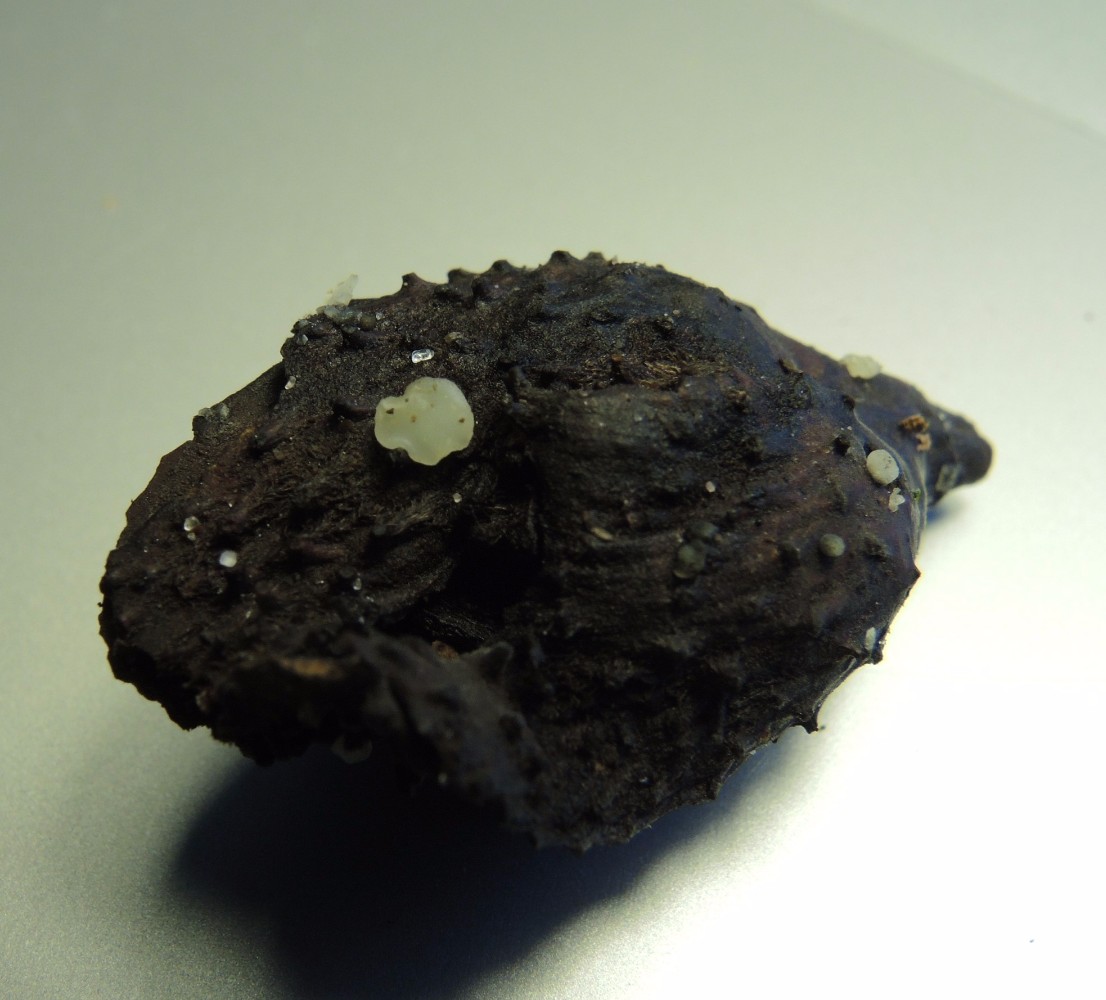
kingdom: Fungi
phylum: Ascomycota
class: Leotiomycetes
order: Helotiales
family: Helotiaceae
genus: Hymenoscyphus
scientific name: Hymenoscyphus fagineus
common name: vellugtende stilkskive
